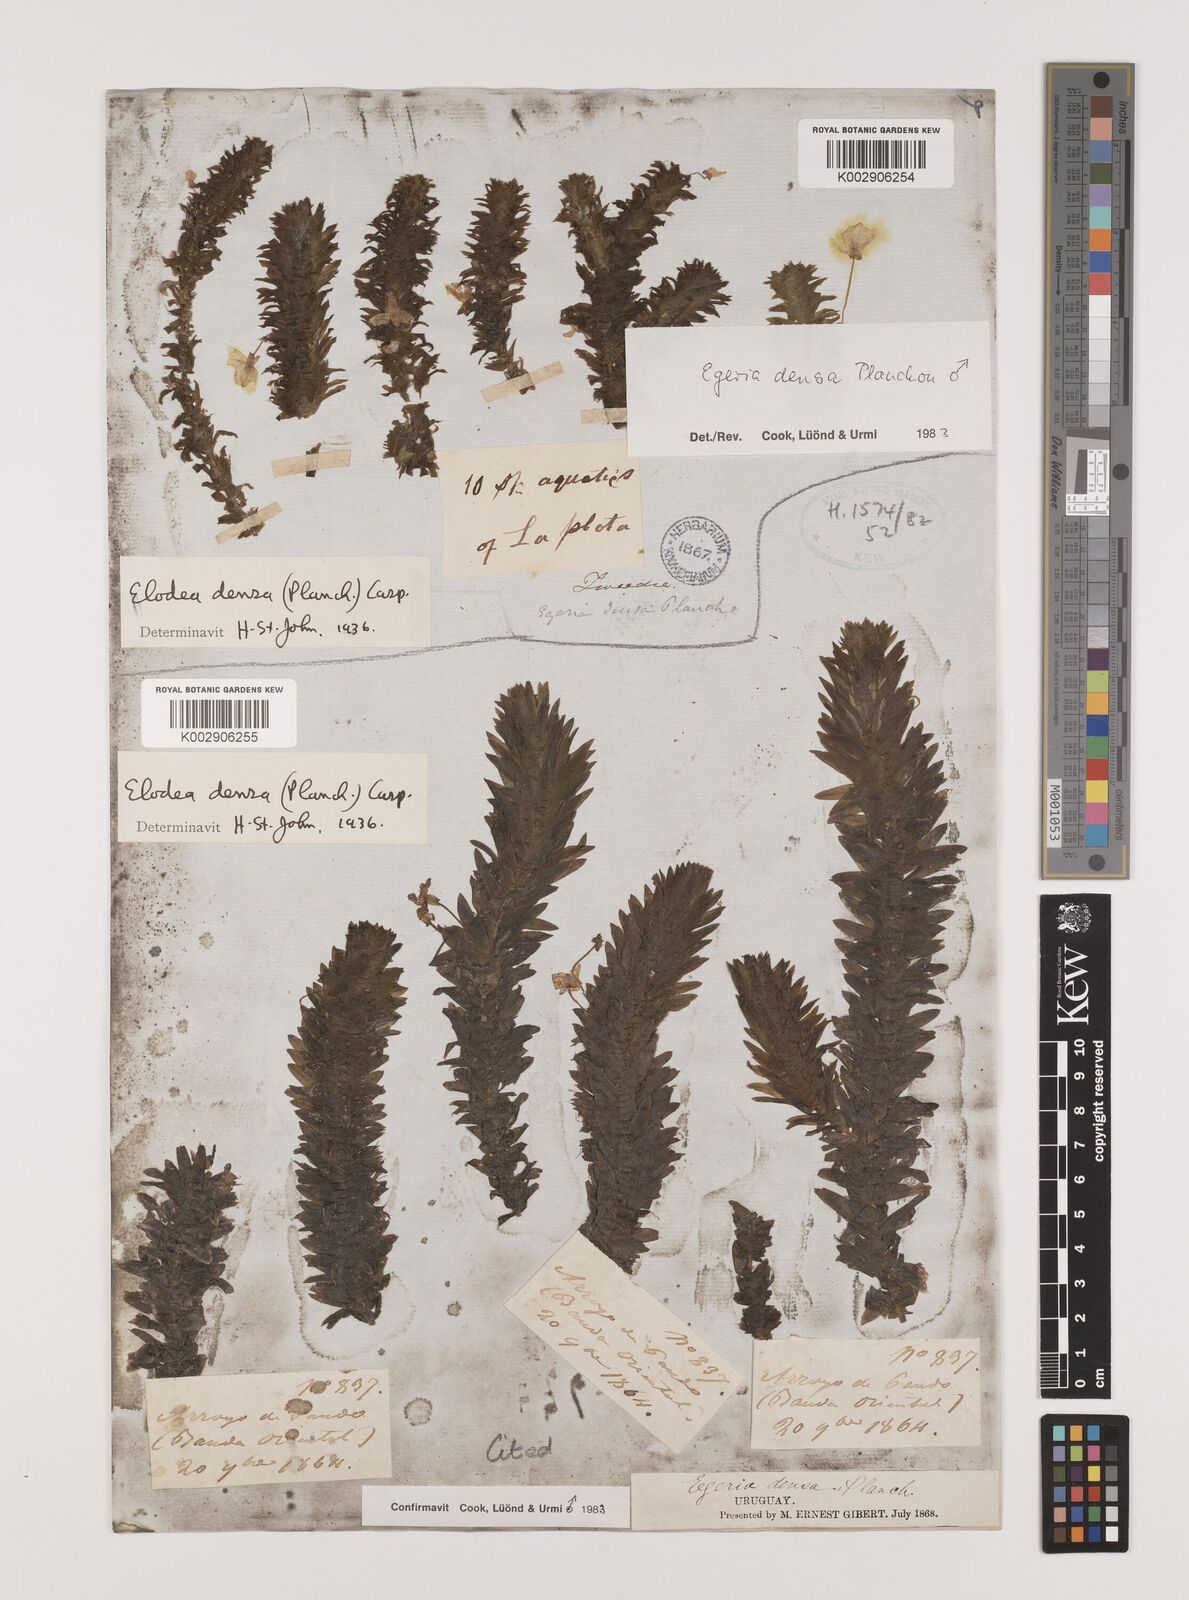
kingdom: Plantae
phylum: Tracheophyta
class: Liliopsida
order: Alismatales
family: Hydrocharitaceae
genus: Elodea
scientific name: Elodea densa
